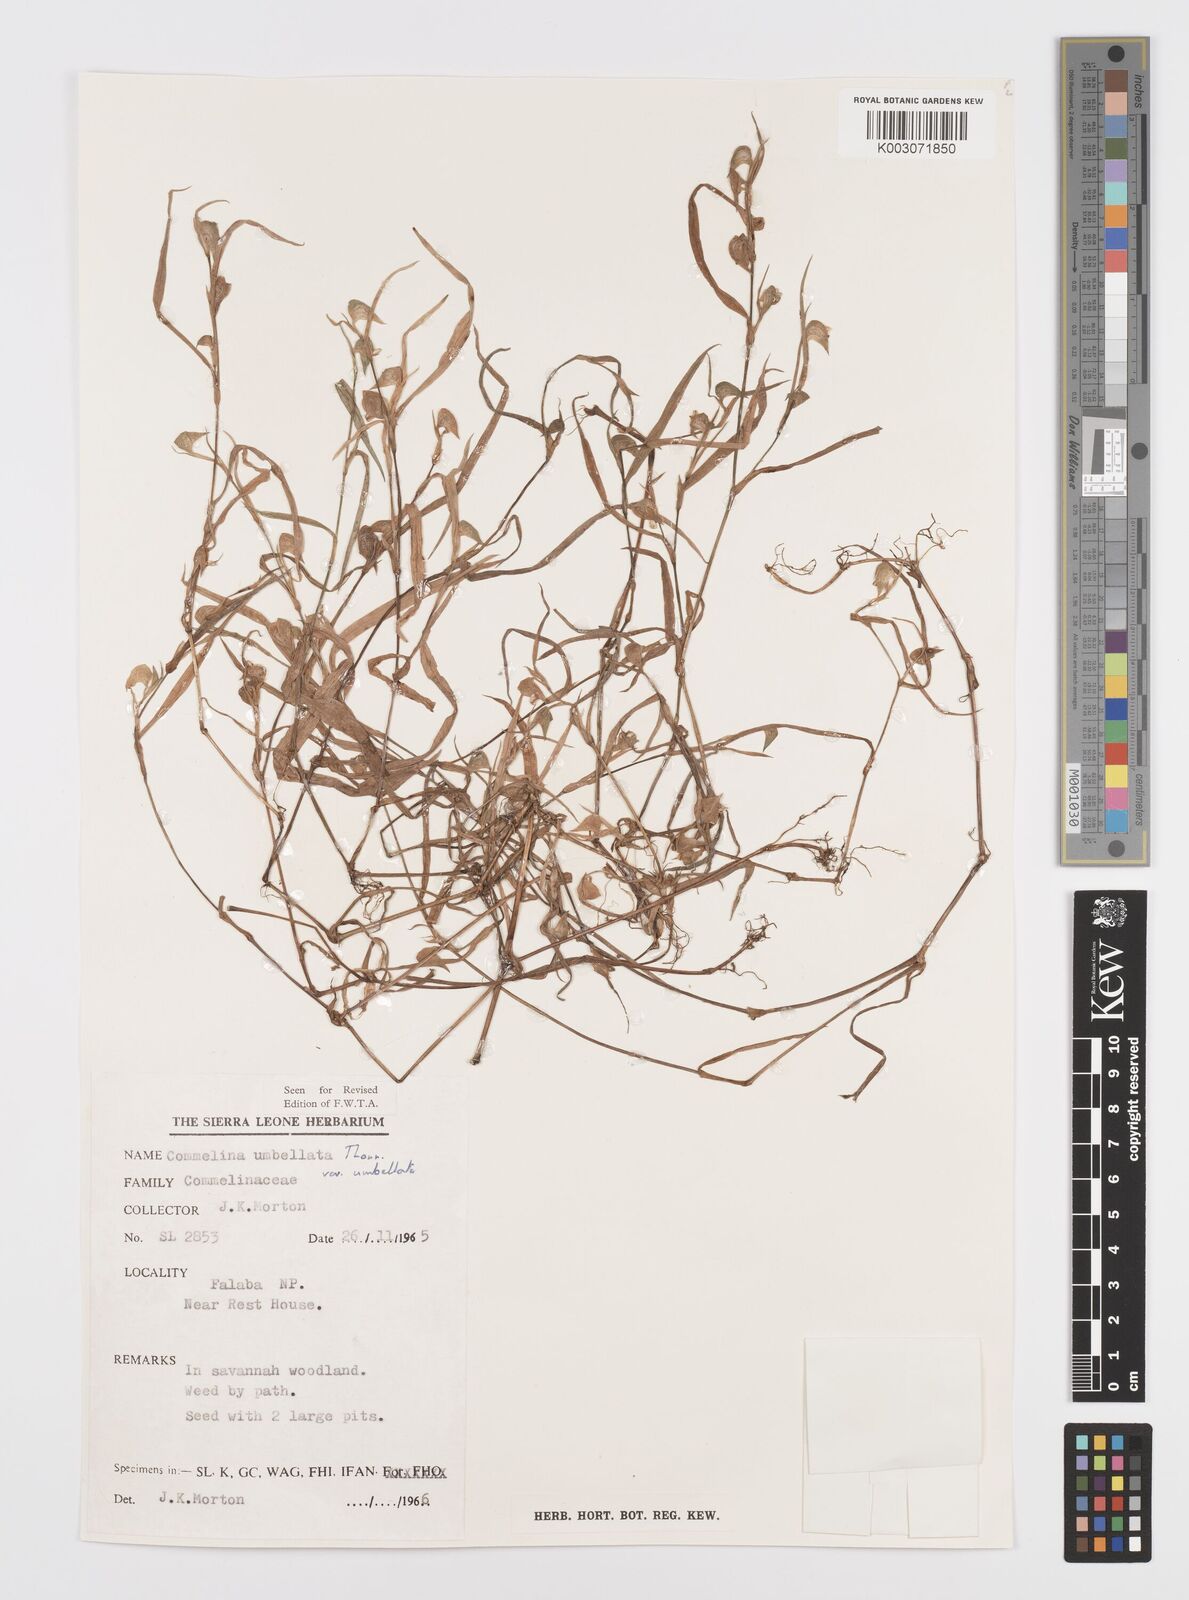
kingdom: Plantae
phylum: Tracheophyta
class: Liliopsida
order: Commelinales
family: Commelinaceae
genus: Commelina
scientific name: Commelina
